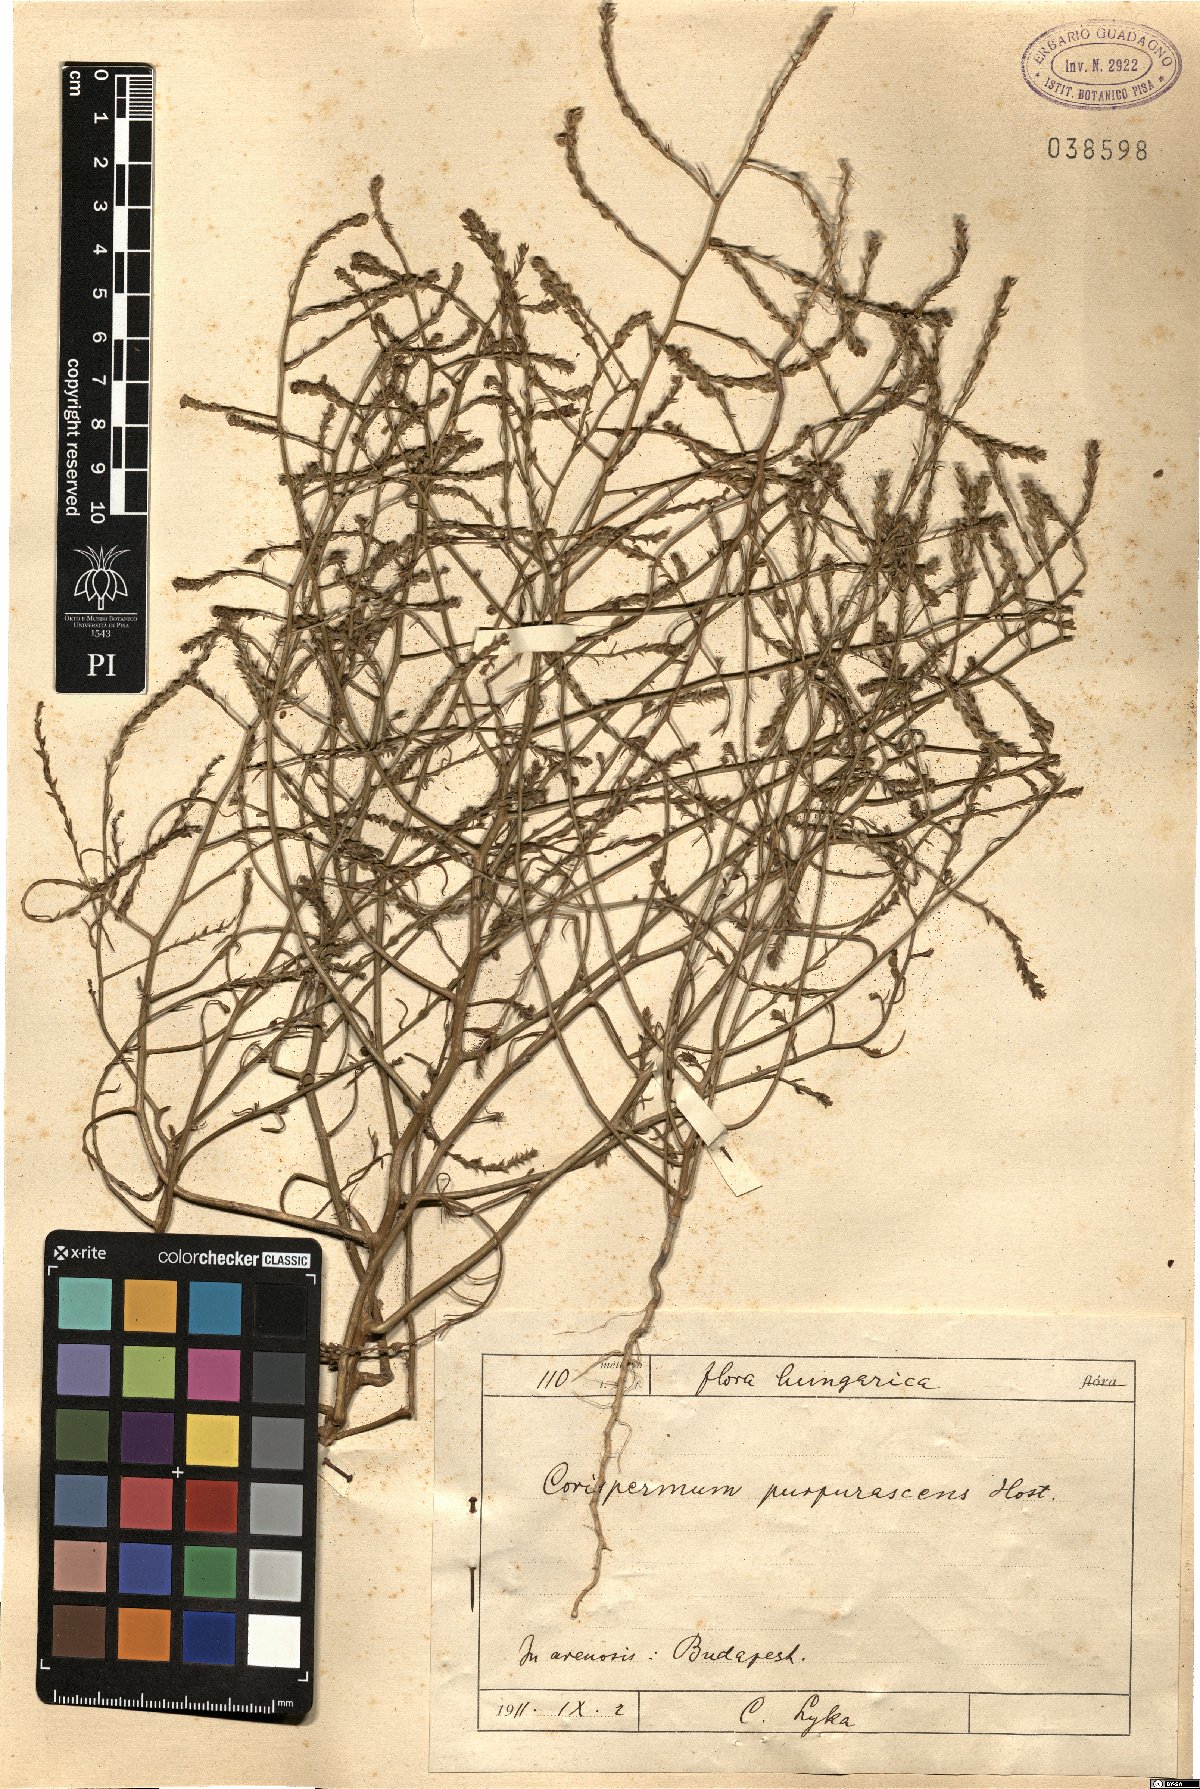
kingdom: Plantae
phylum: Tracheophyta
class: Magnoliopsida
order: Caryophyllales
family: Amaranthaceae
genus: Corispermum
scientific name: Corispermum nitidum
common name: Bugseed
